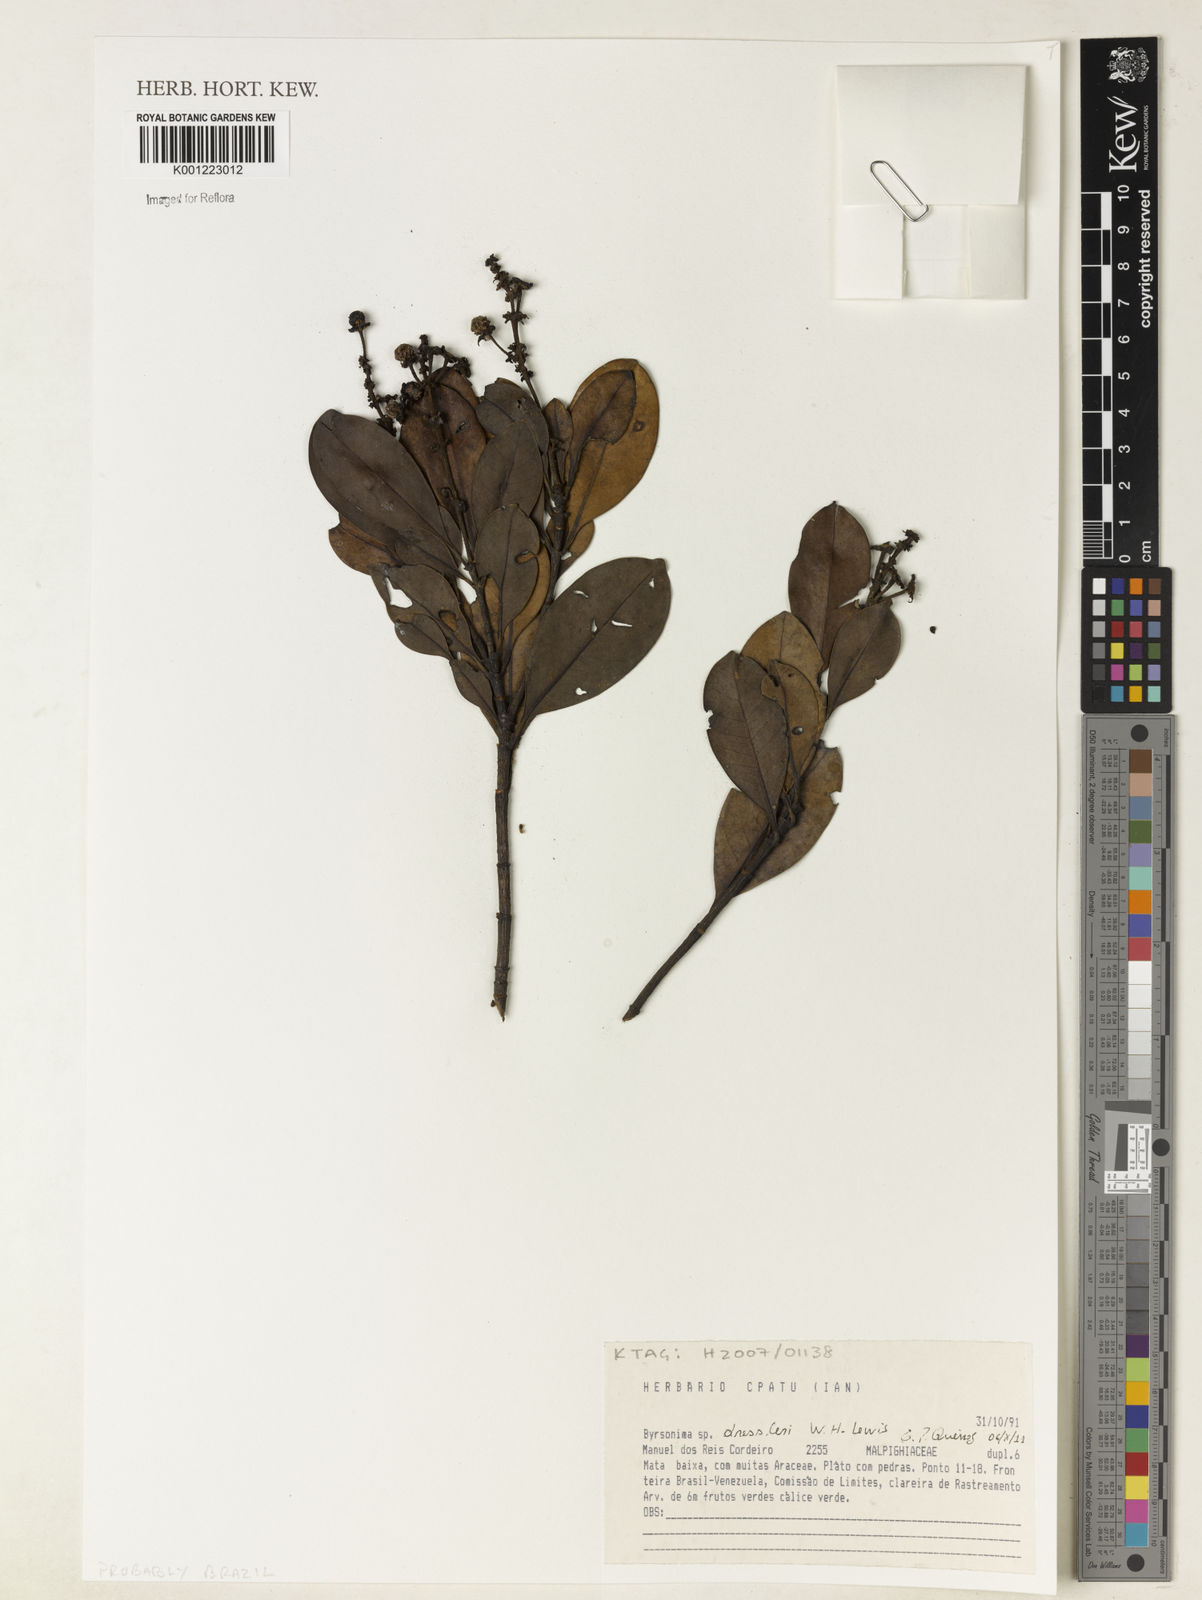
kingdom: Plantae
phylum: Tracheophyta
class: Magnoliopsida
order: Malpighiales
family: Malpighiaceae
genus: Byrsonima
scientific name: Byrsonima nemoralis
